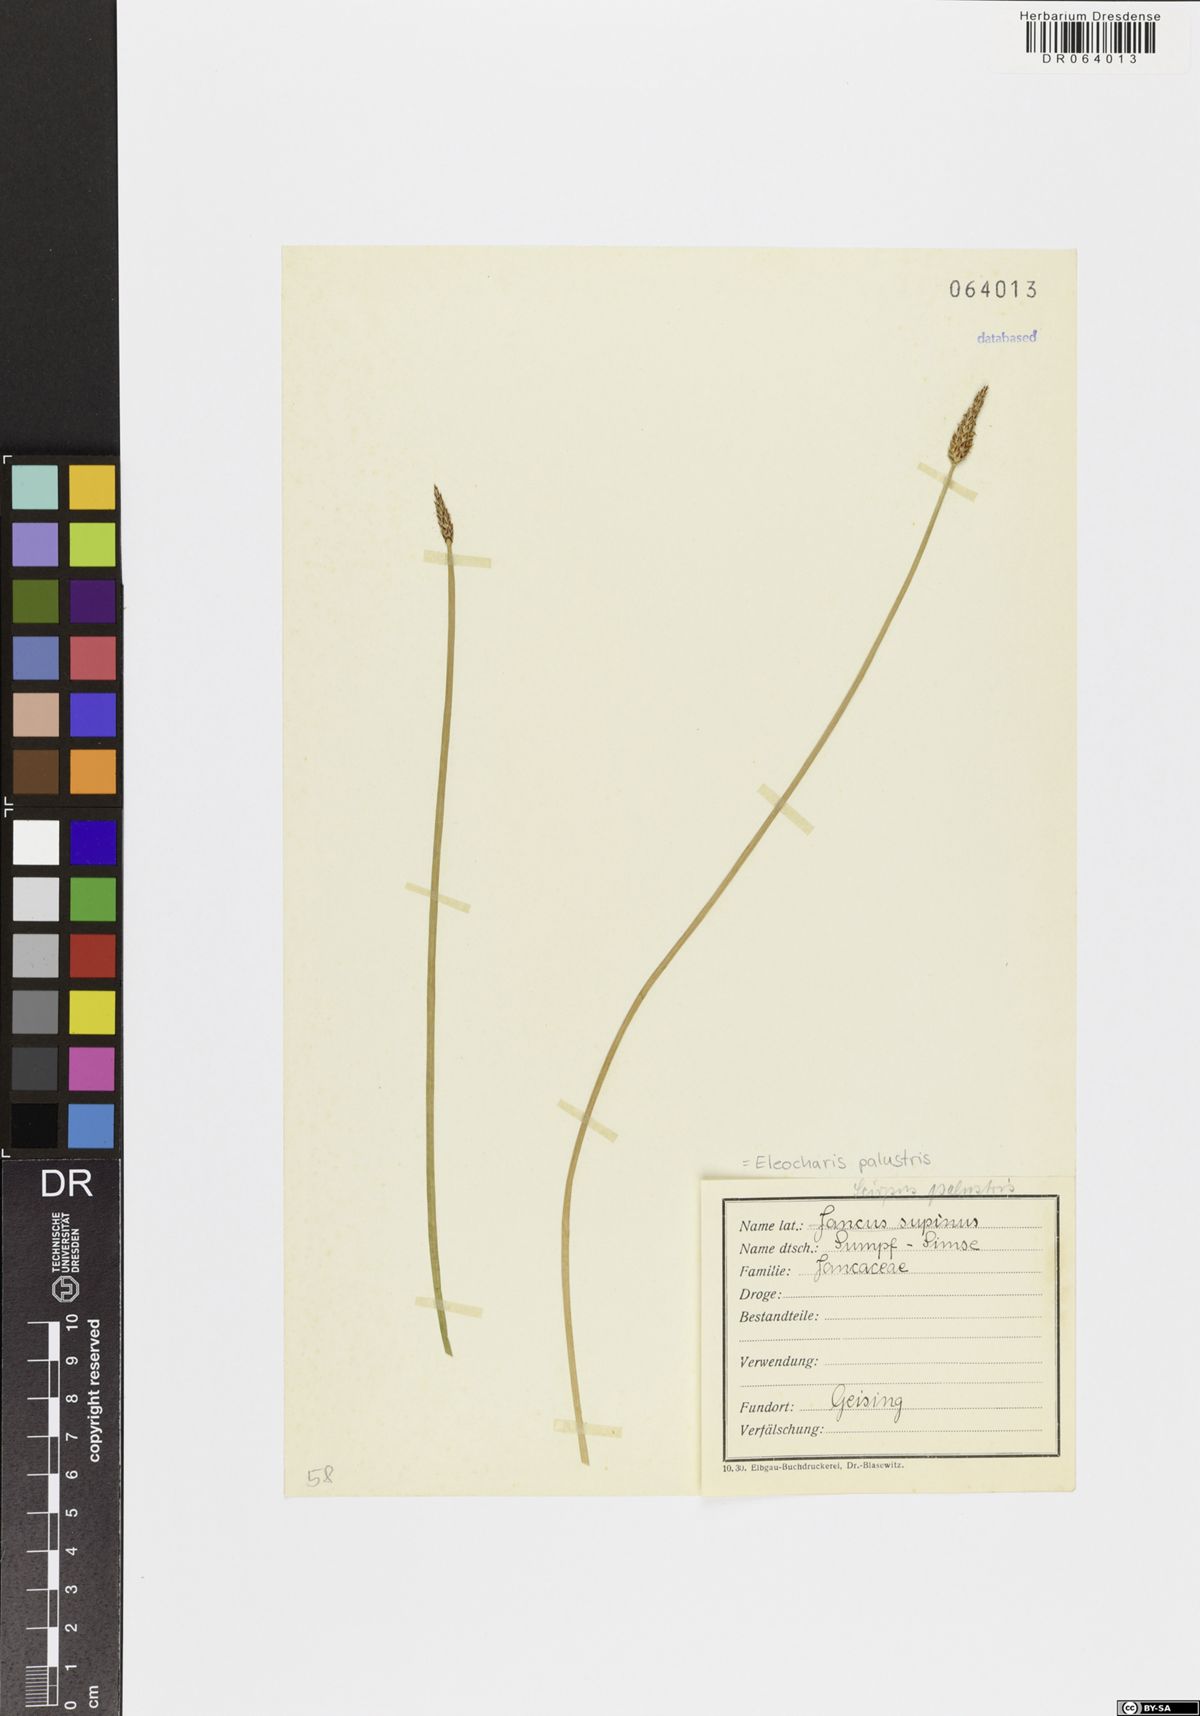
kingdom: Plantae
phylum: Tracheophyta
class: Liliopsida
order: Poales
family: Cyperaceae
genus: Eleocharis
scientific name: Eleocharis palustris
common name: Common spike-rush
